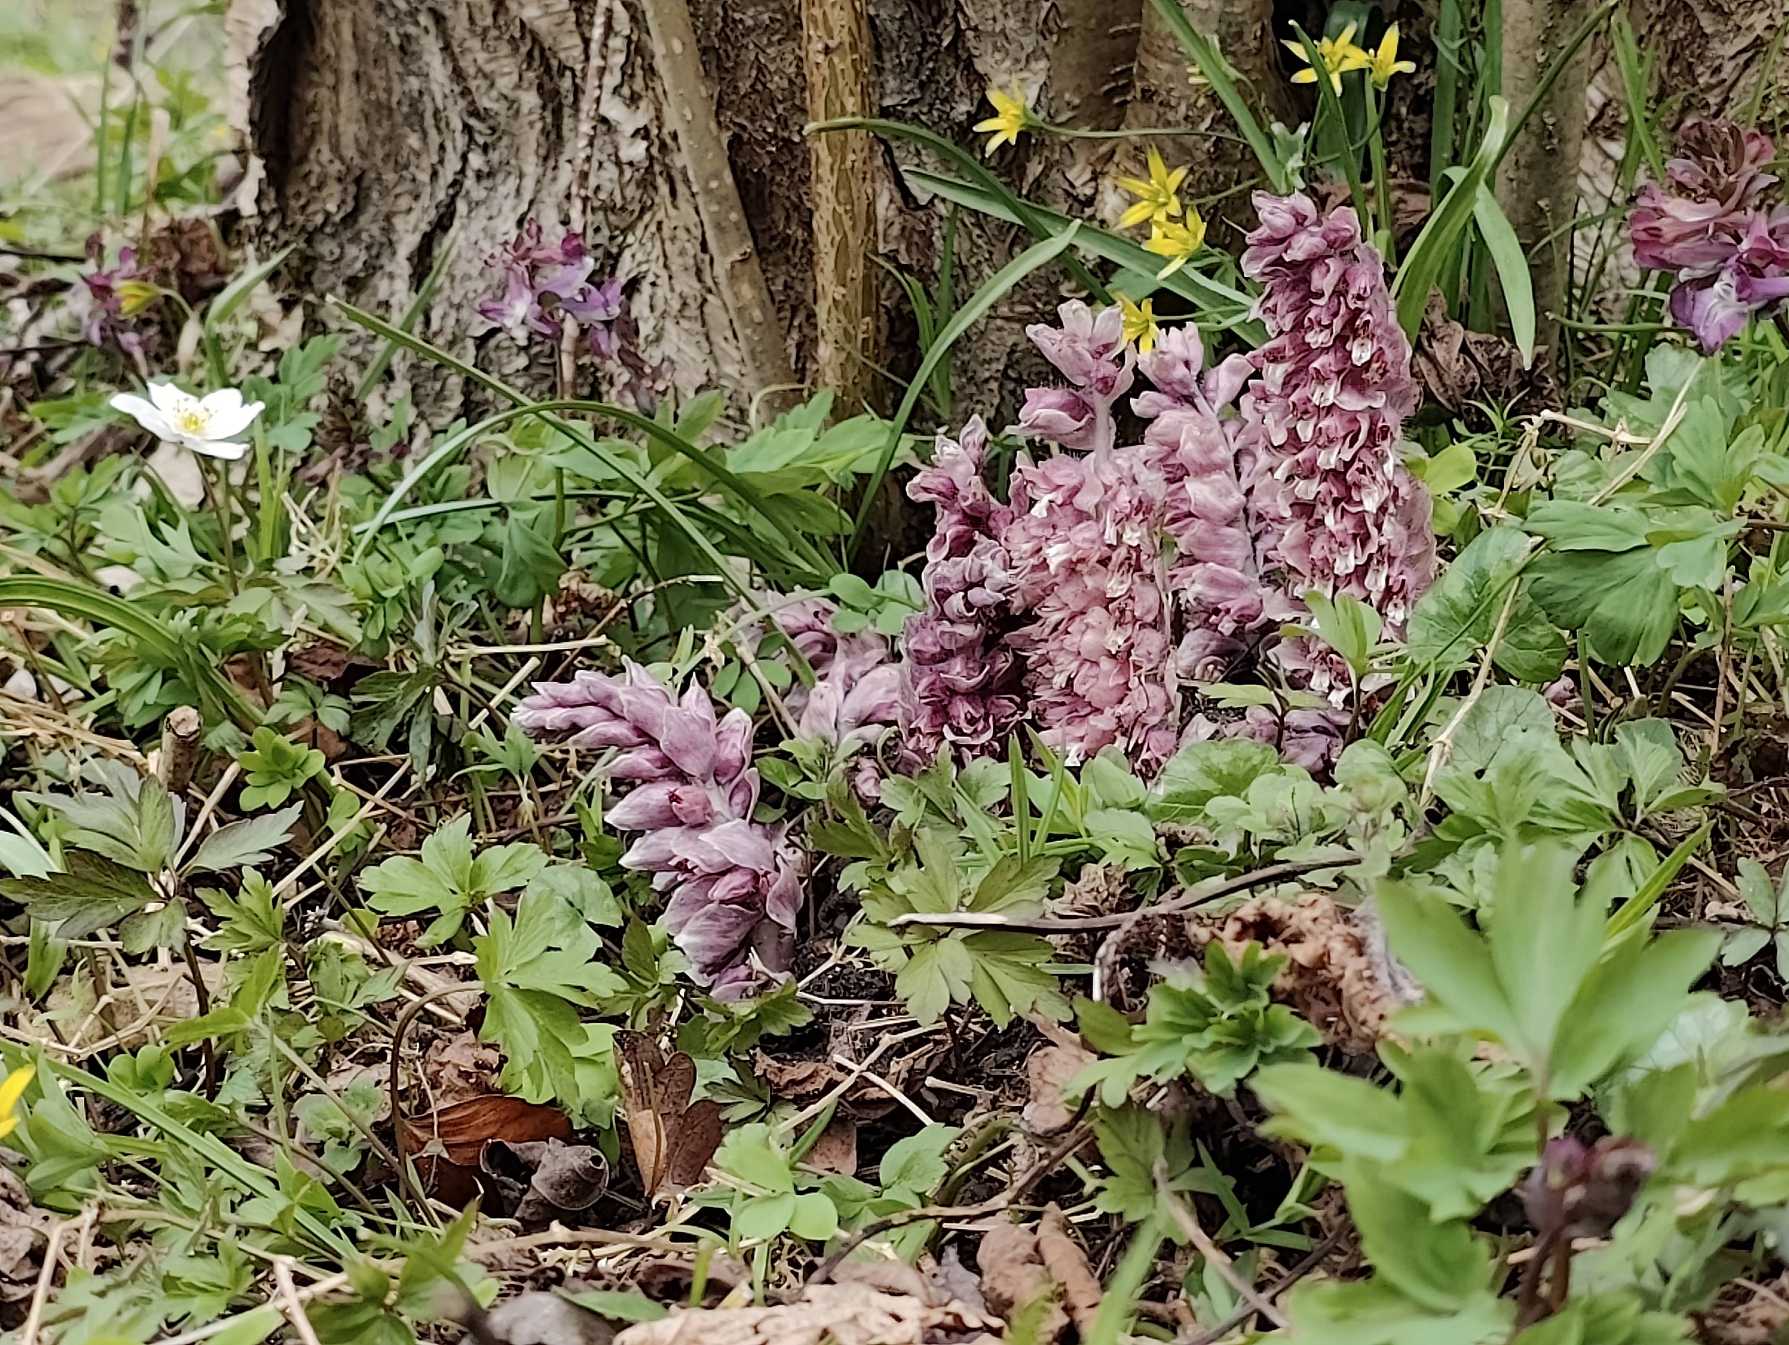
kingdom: Plantae
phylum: Tracheophyta
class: Magnoliopsida
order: Lamiales
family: Orobanchaceae
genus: Lathraea
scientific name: Lathraea squamaria
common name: Skælrod
